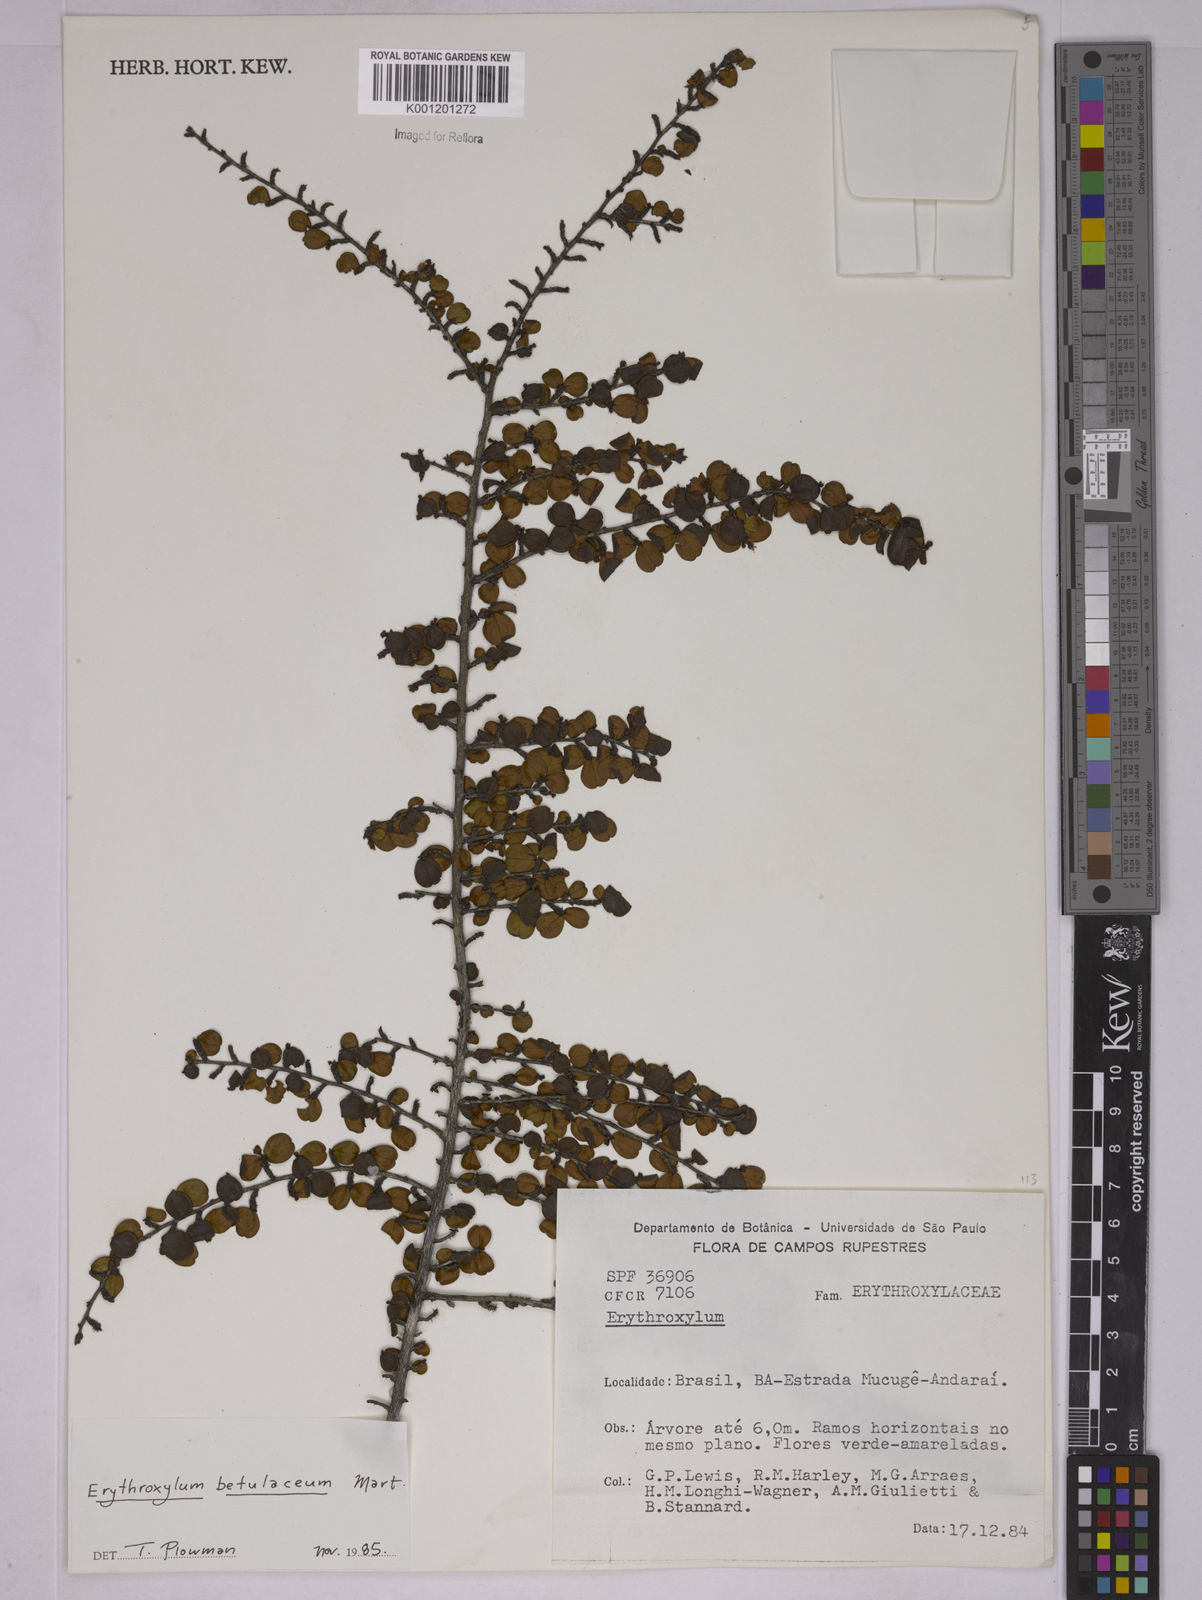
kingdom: Plantae
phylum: Tracheophyta
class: Magnoliopsida
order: Malpighiales
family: Erythroxylaceae
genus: Erythroxylum
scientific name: Erythroxylum betulaceum
